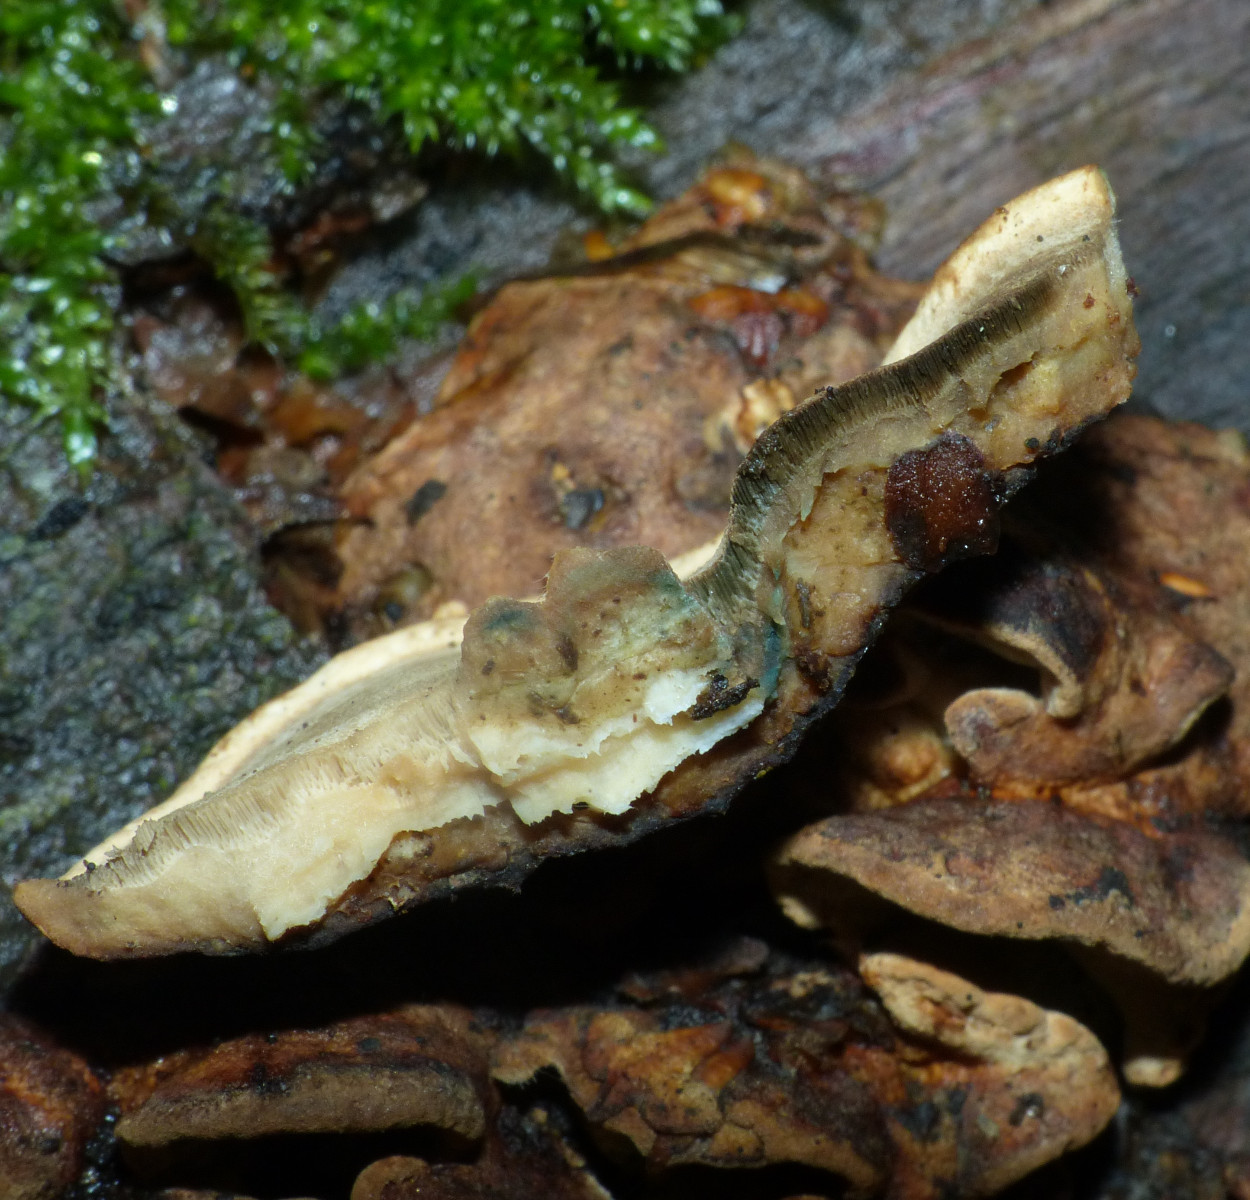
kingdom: Fungi
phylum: Basidiomycota
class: Agaricomycetes
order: Polyporales
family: Incrustoporiaceae
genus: Skeletocutis
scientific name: Skeletocutis nemoralis
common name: stor krystalporesvamp
